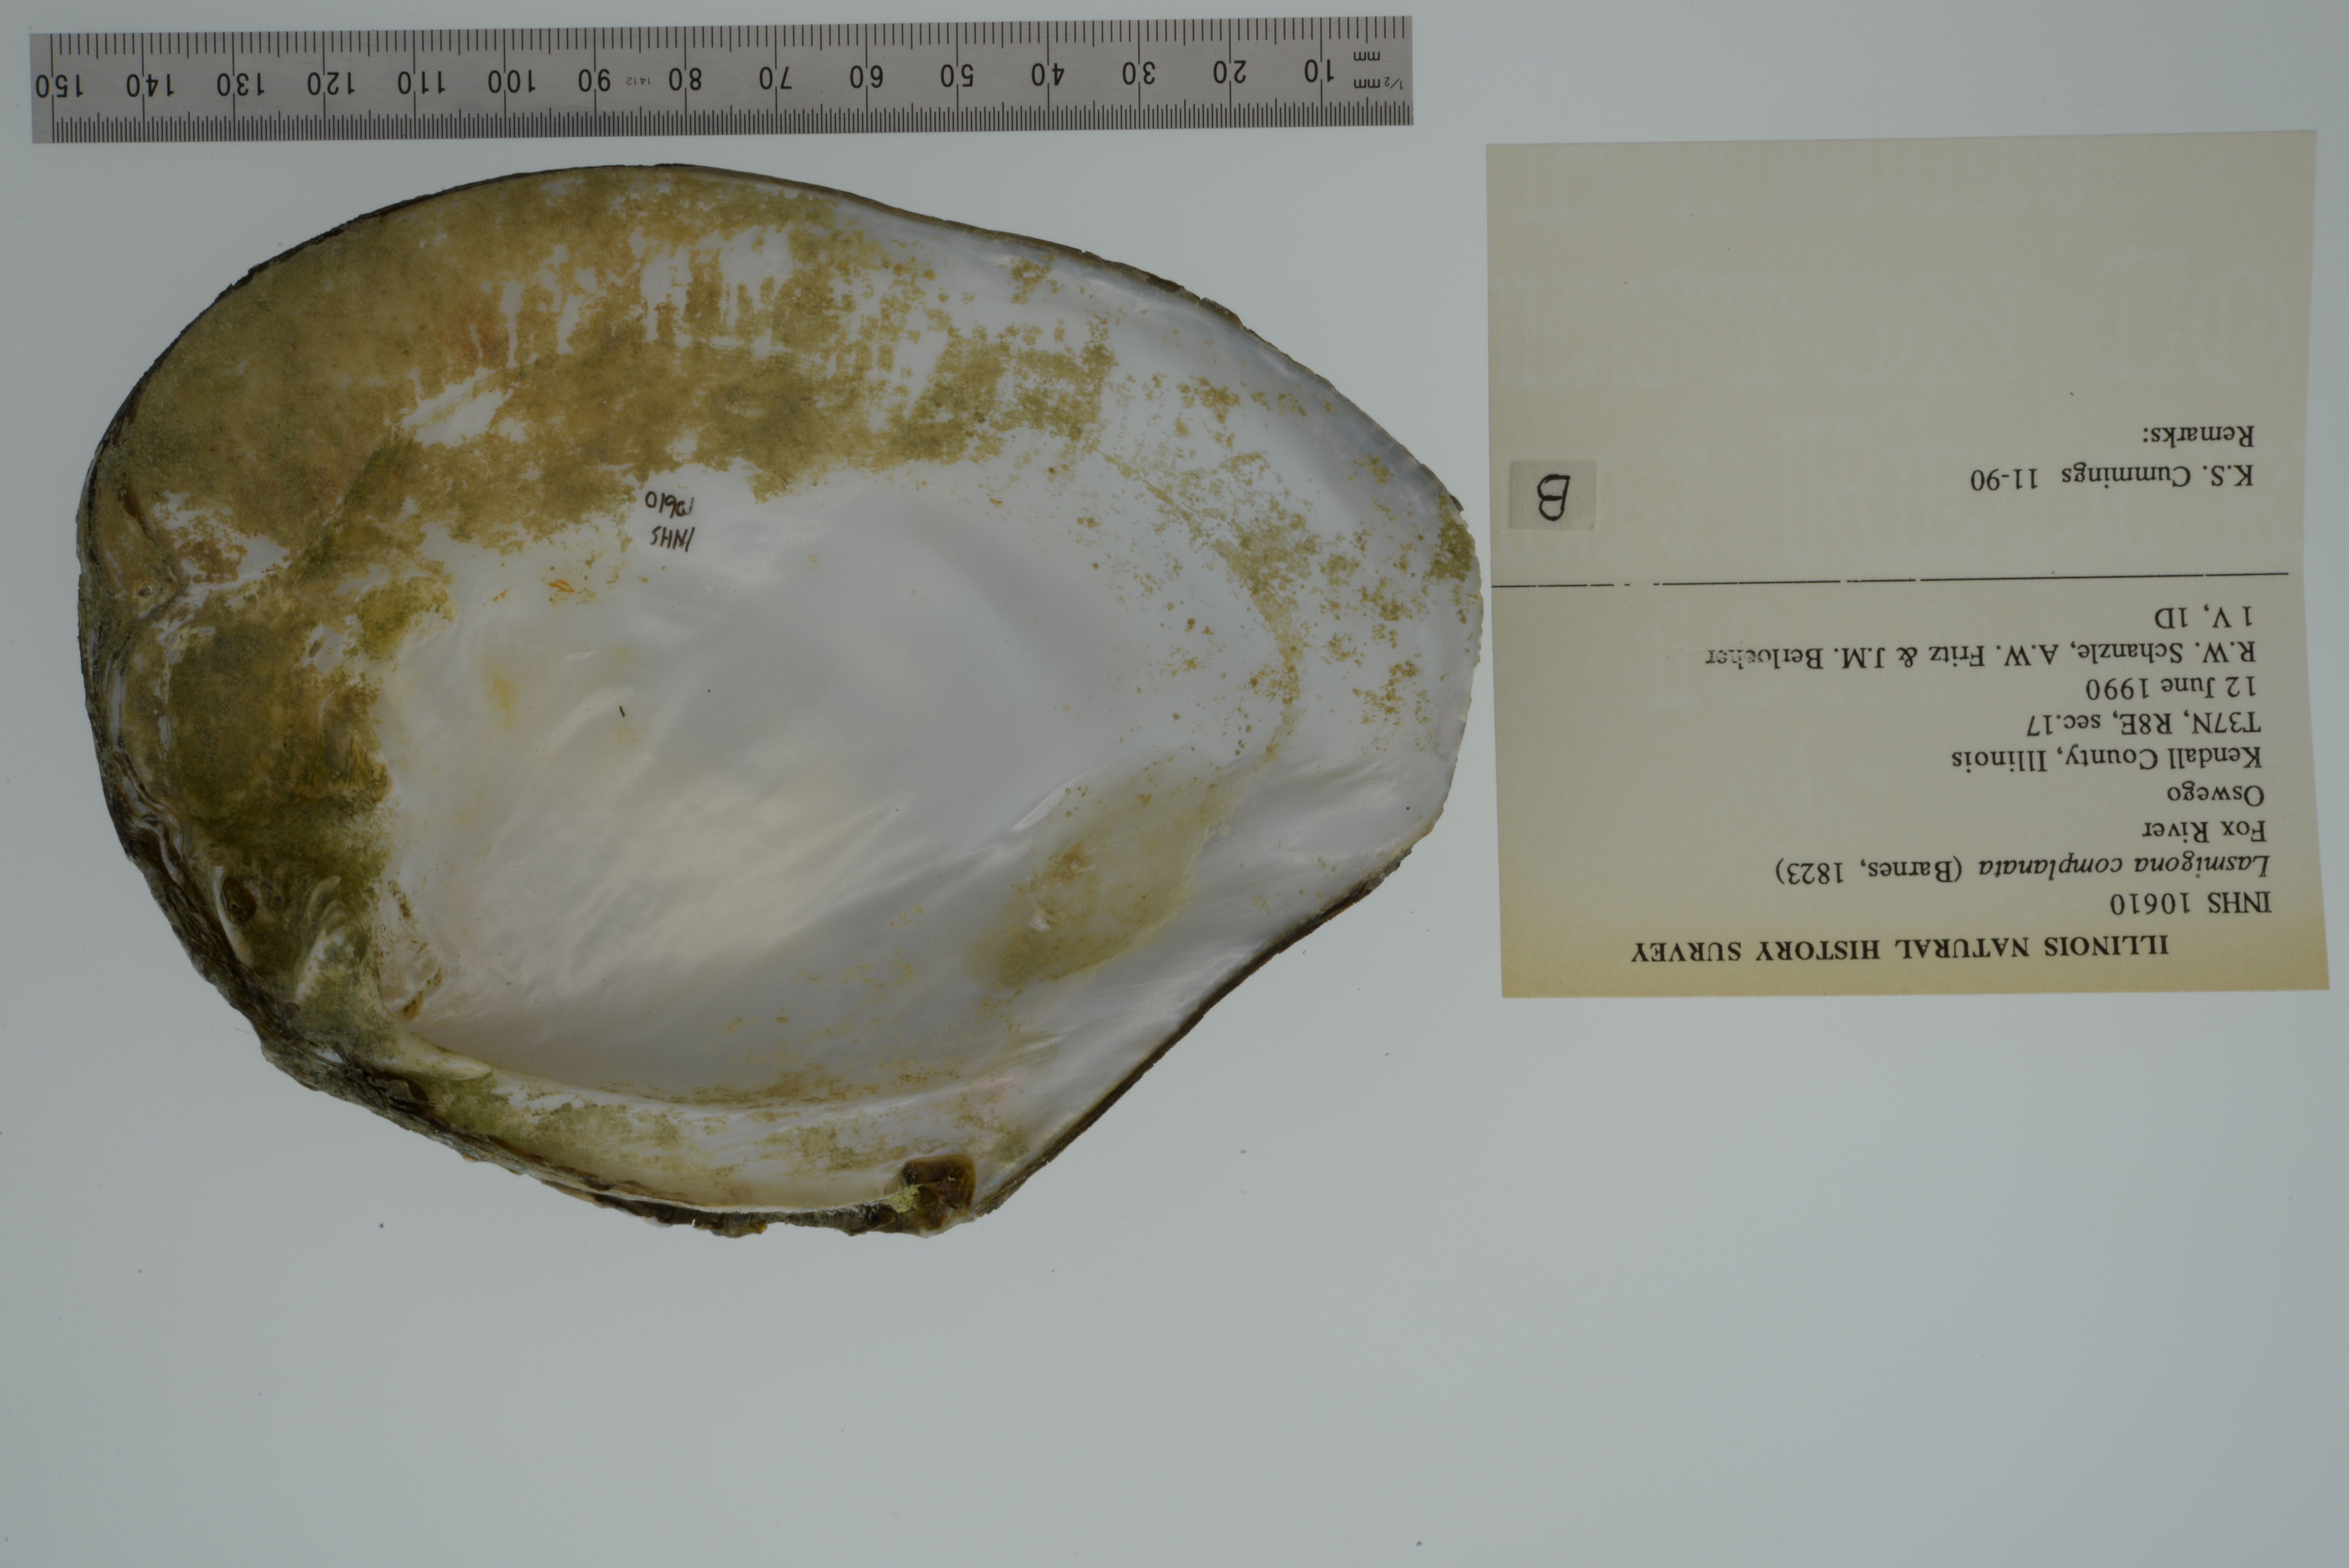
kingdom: Animalia
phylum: Mollusca
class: Bivalvia
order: Unionida
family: Unionidae
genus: Lasmigona
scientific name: Lasmigona complanata
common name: White heelsplitter
